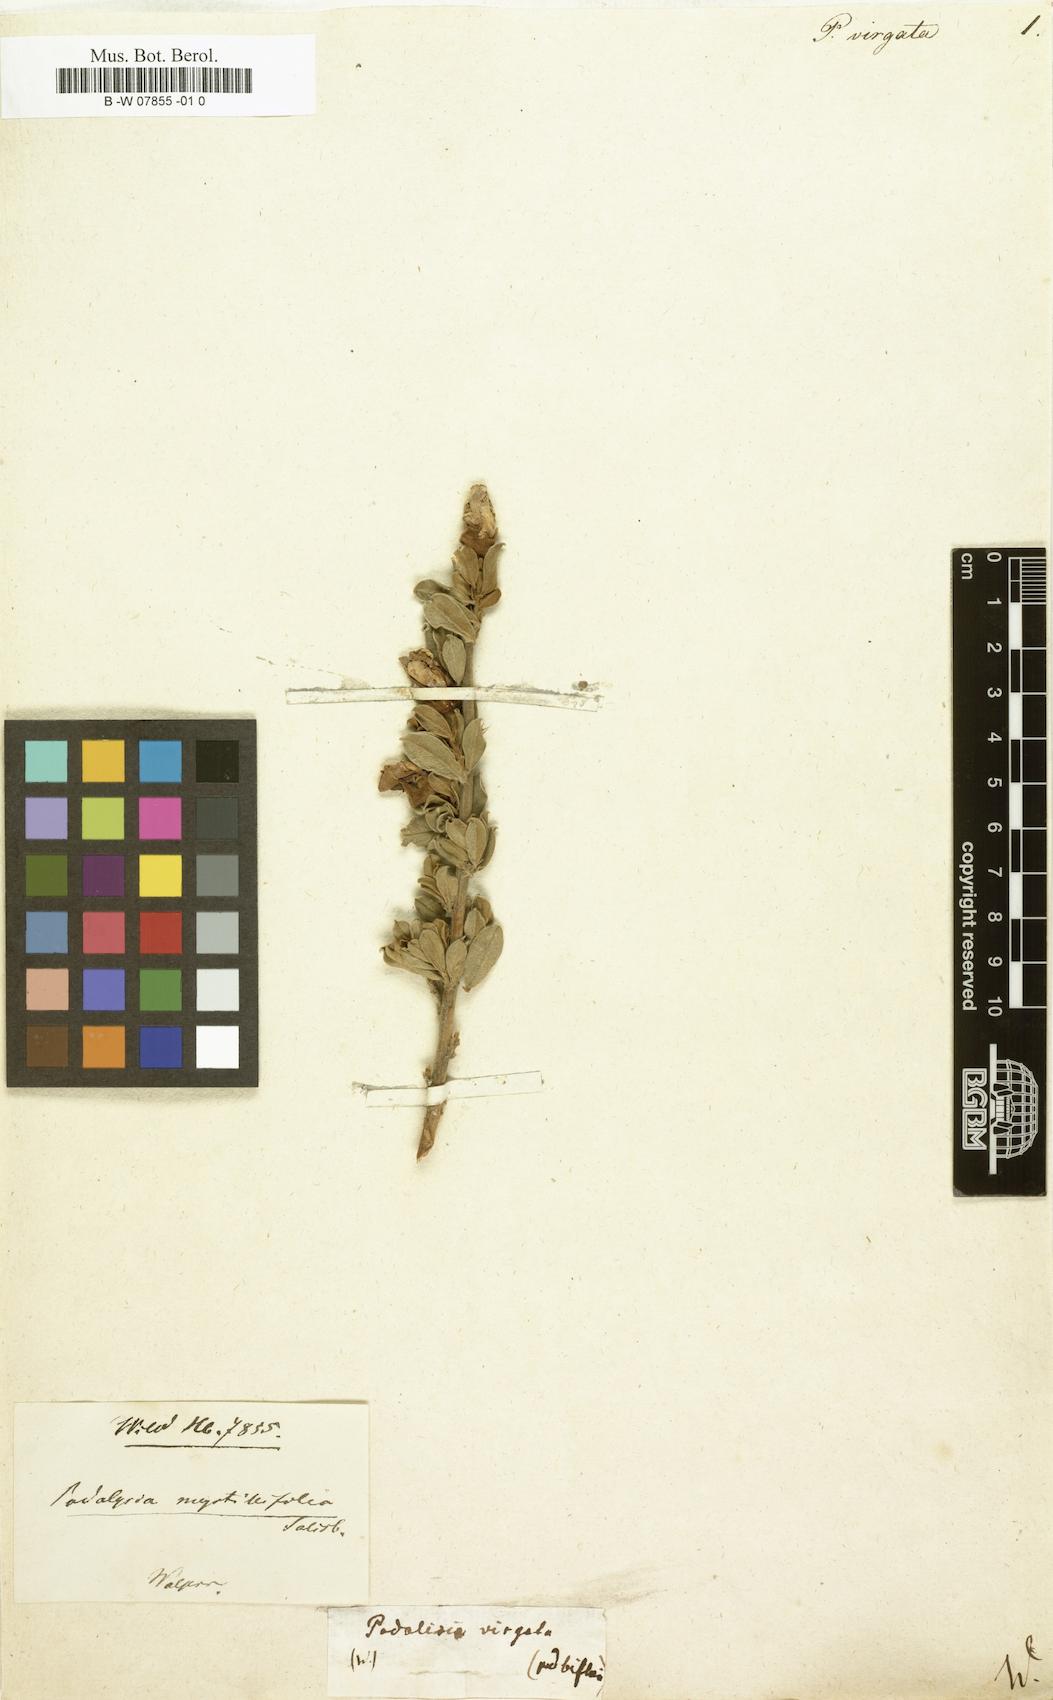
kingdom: Plantae
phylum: Tracheophyta
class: Magnoliopsida
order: Fabales
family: Fabaceae
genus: Podalyria
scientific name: Podalyria myrtillifolia
